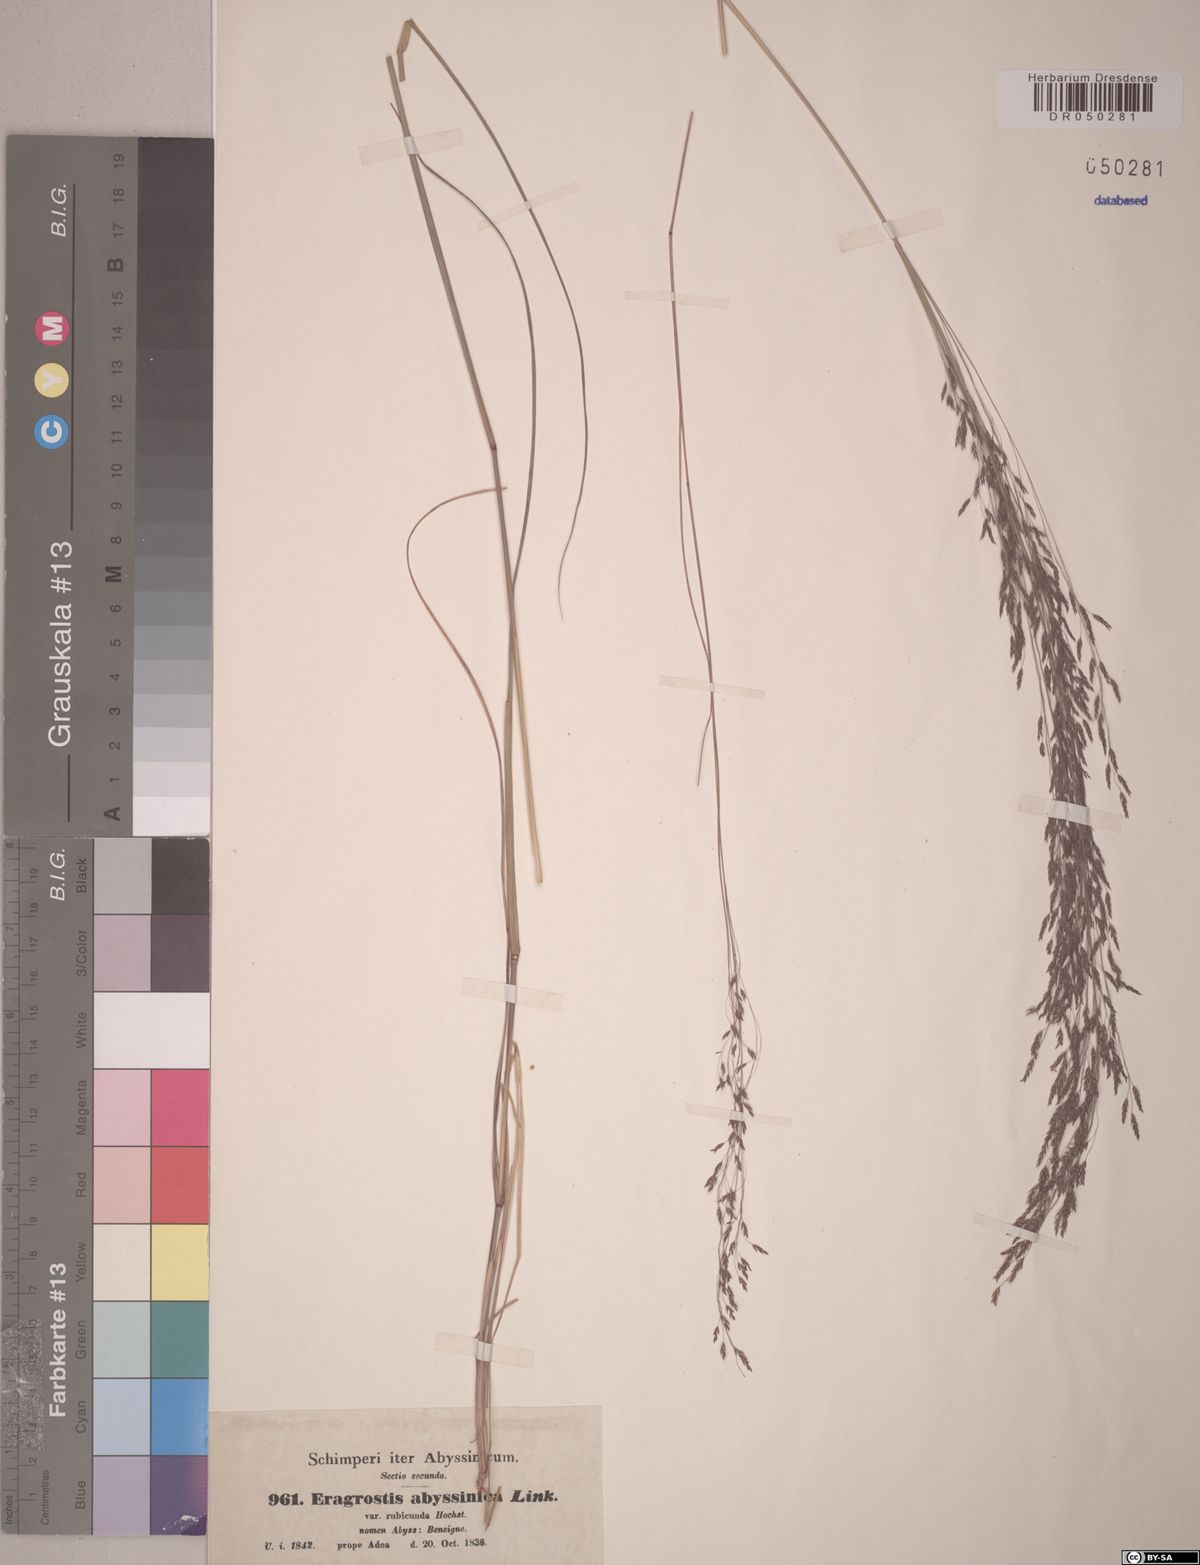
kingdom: Plantae
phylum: Tracheophyta
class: Liliopsida
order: Poales
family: Poaceae
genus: Eragrostis
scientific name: Eragrostis tef
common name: Teff
